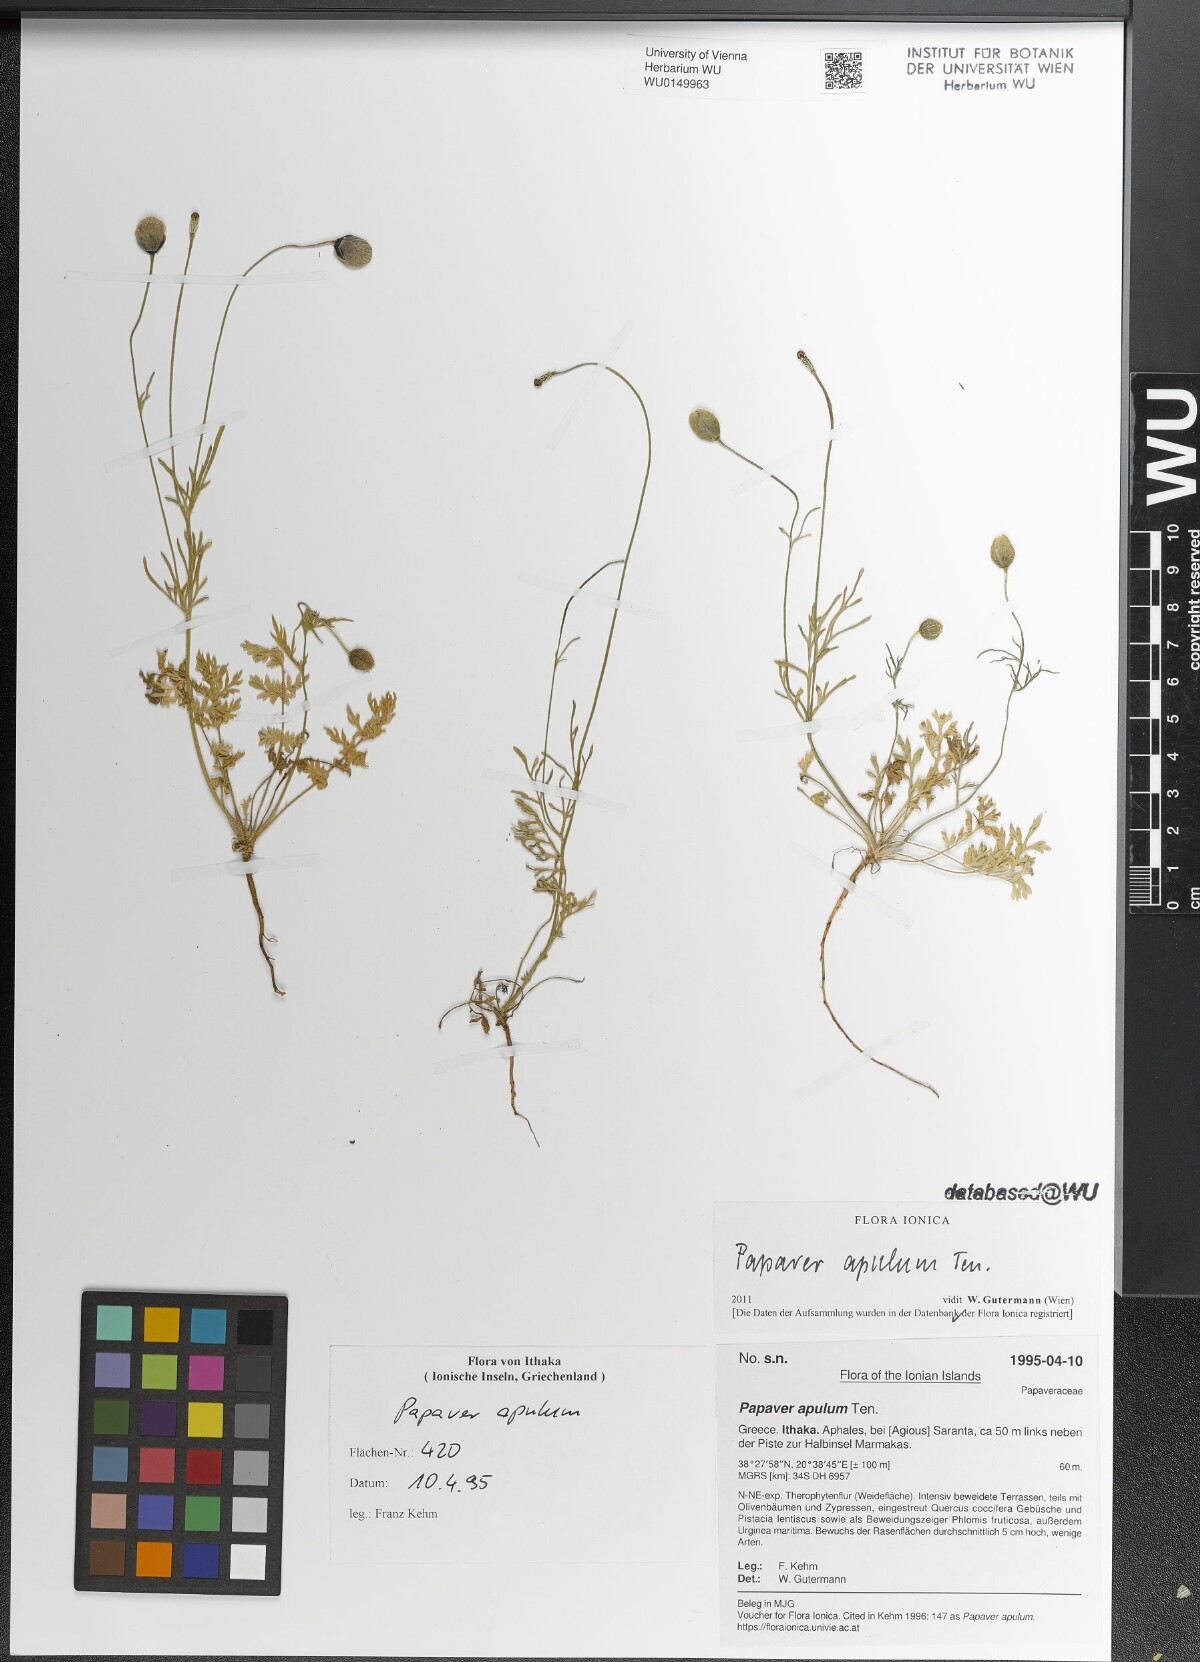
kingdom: Plantae
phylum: Tracheophyta
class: Magnoliopsida
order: Ranunculales
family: Papaveraceae
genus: Roemeria
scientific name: Roemeria apula
